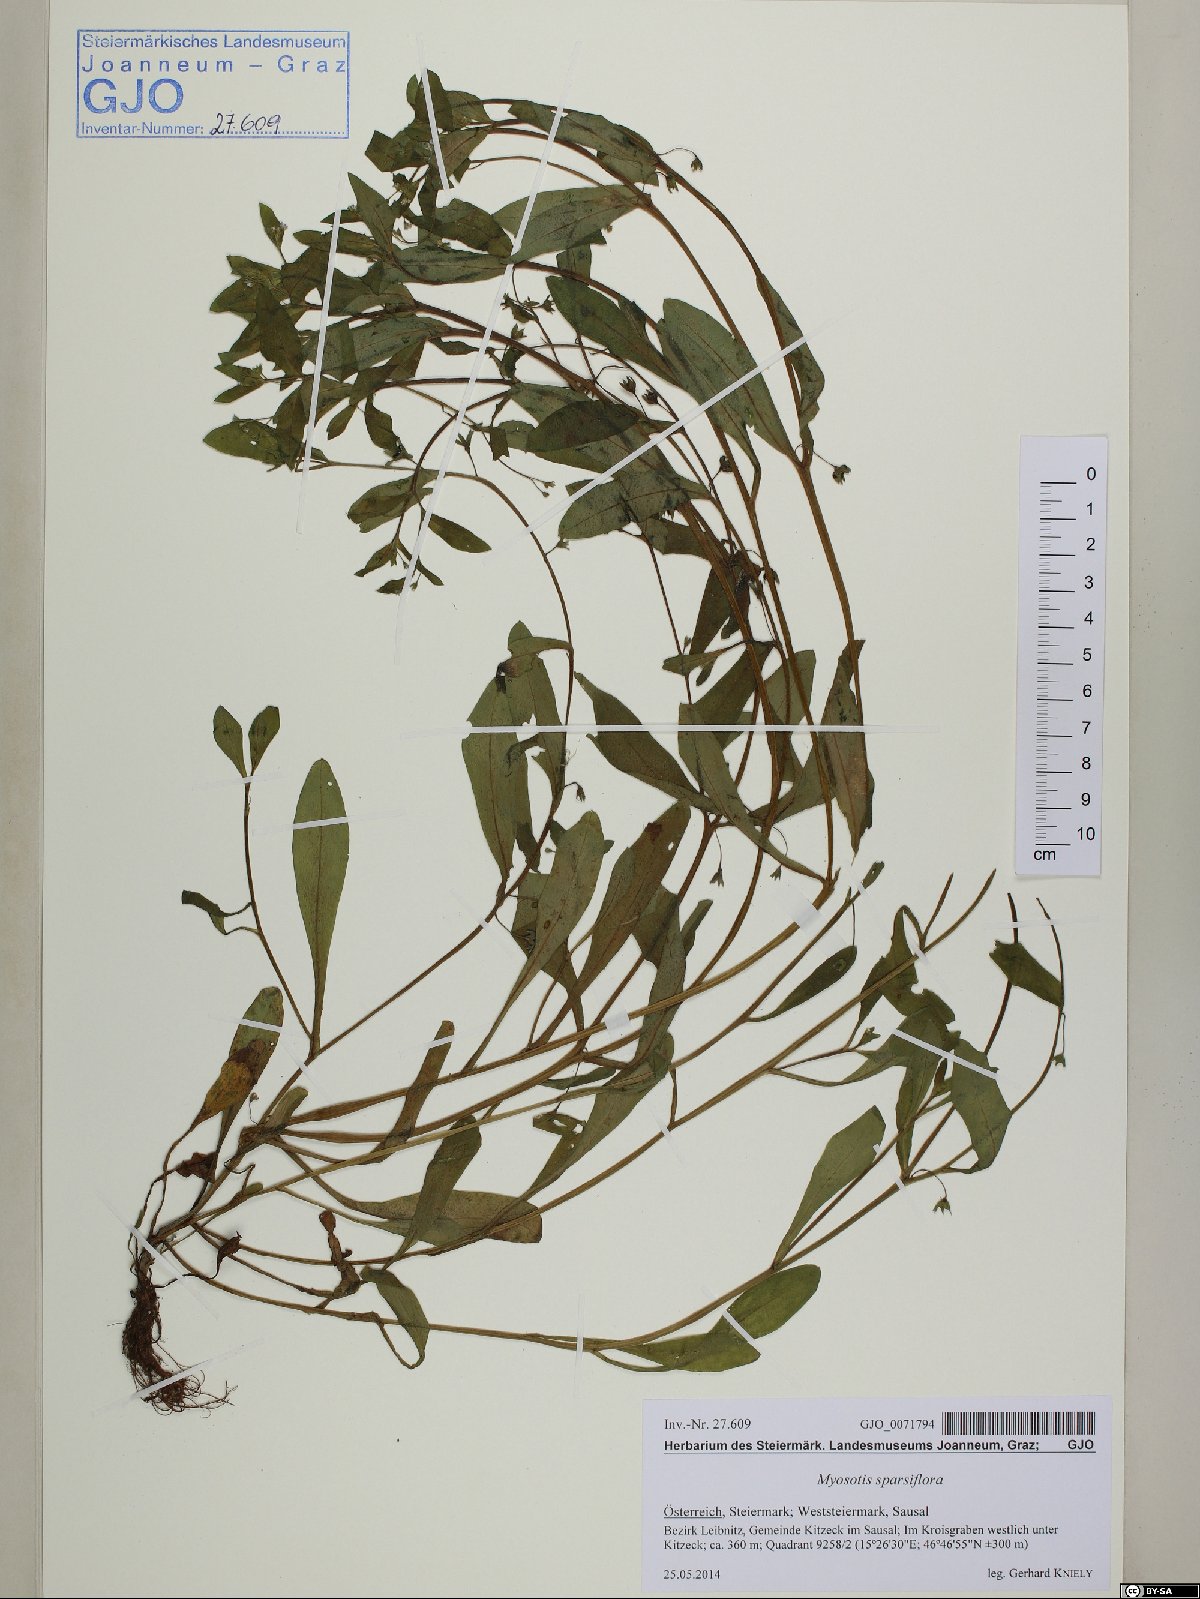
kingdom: Plantae
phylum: Tracheophyta
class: Magnoliopsida
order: Boraginales
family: Boraginaceae
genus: Myosotis
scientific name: Myosotis sparsiflora
